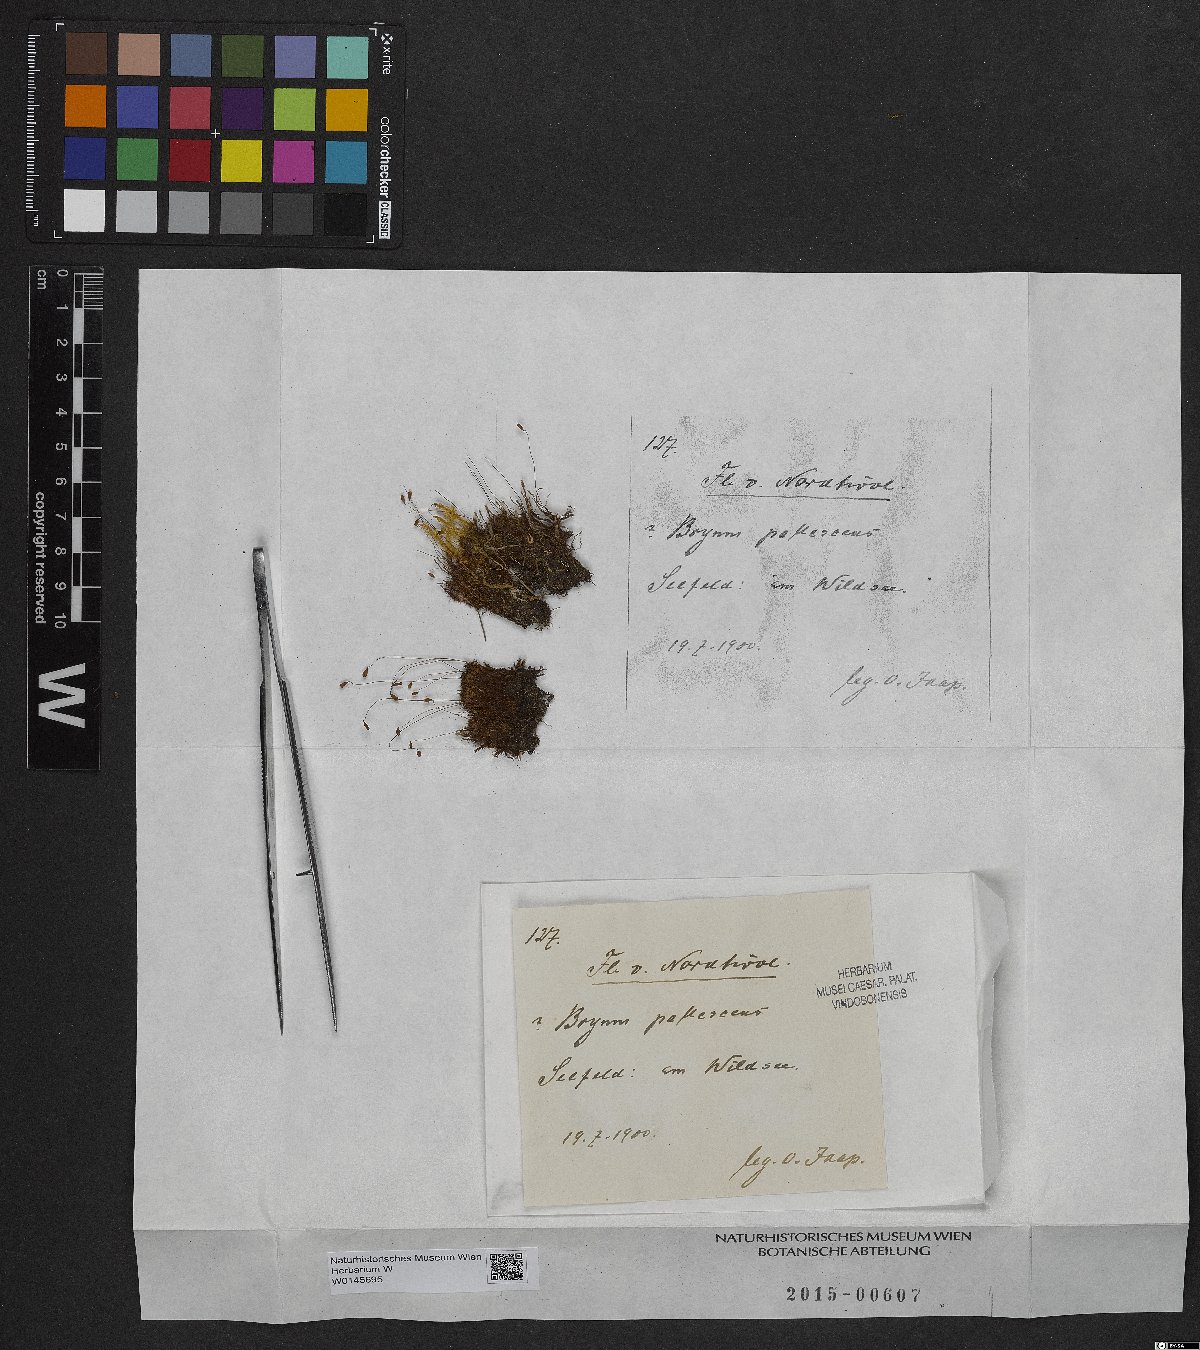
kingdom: Plantae
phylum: Bryophyta
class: Bryopsida
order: Bryales
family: Bryaceae
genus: Ptychostomum
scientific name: Ptychostomum pallescens
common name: Tall-clustered thread-moss
